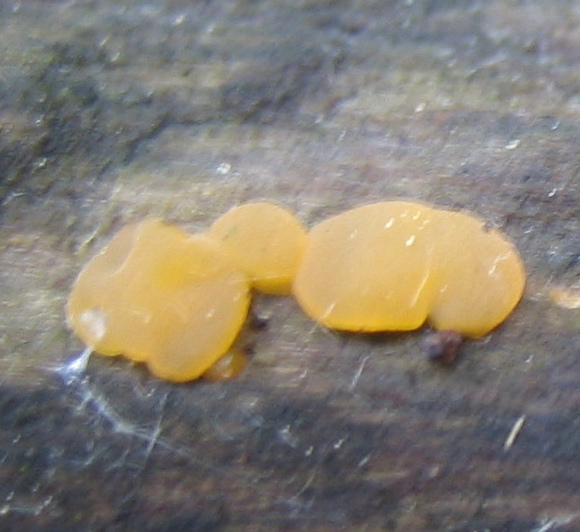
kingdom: Fungi
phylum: Basidiomycota
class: Dacrymycetes
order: Dacrymycetales
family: Dacrymycetaceae
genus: Dacrymyces
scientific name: Dacrymyces stillatus
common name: almindelig tåresvamp
